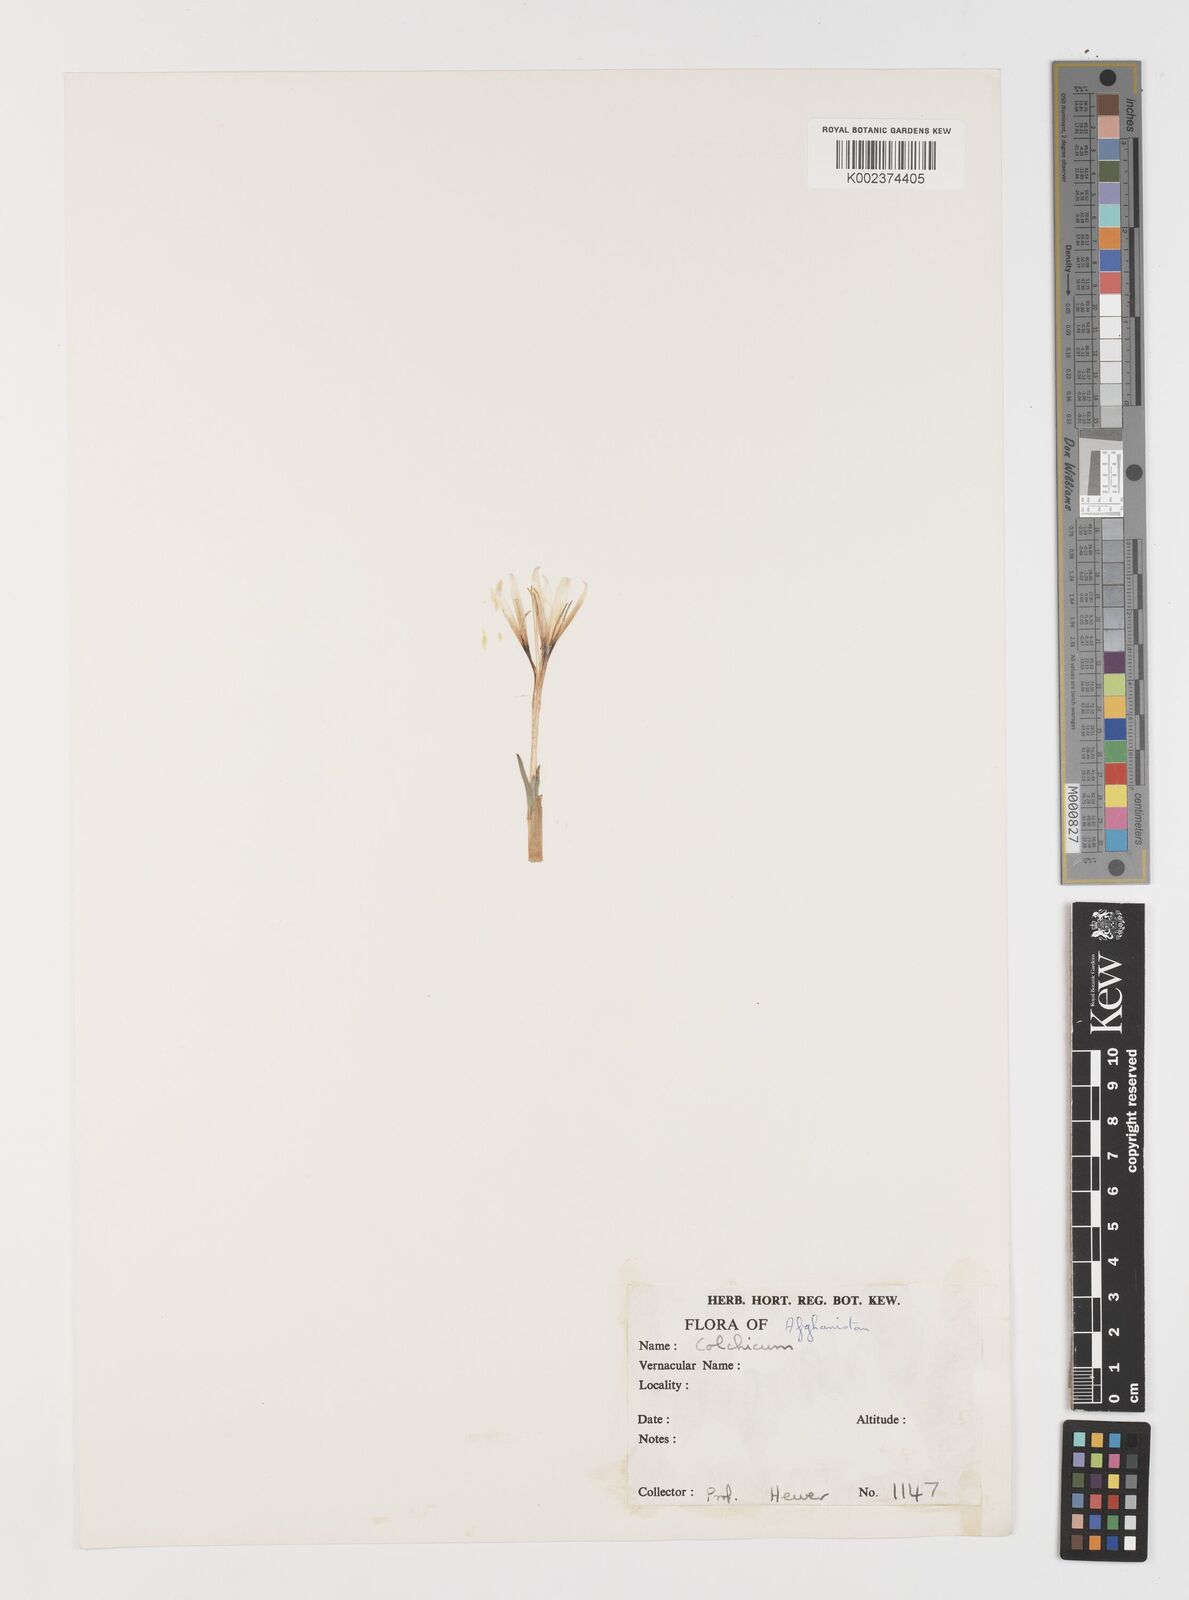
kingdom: Plantae
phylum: Tracheophyta
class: Liliopsida
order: Liliales
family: Colchicaceae
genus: Colchicum
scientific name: Colchicum
